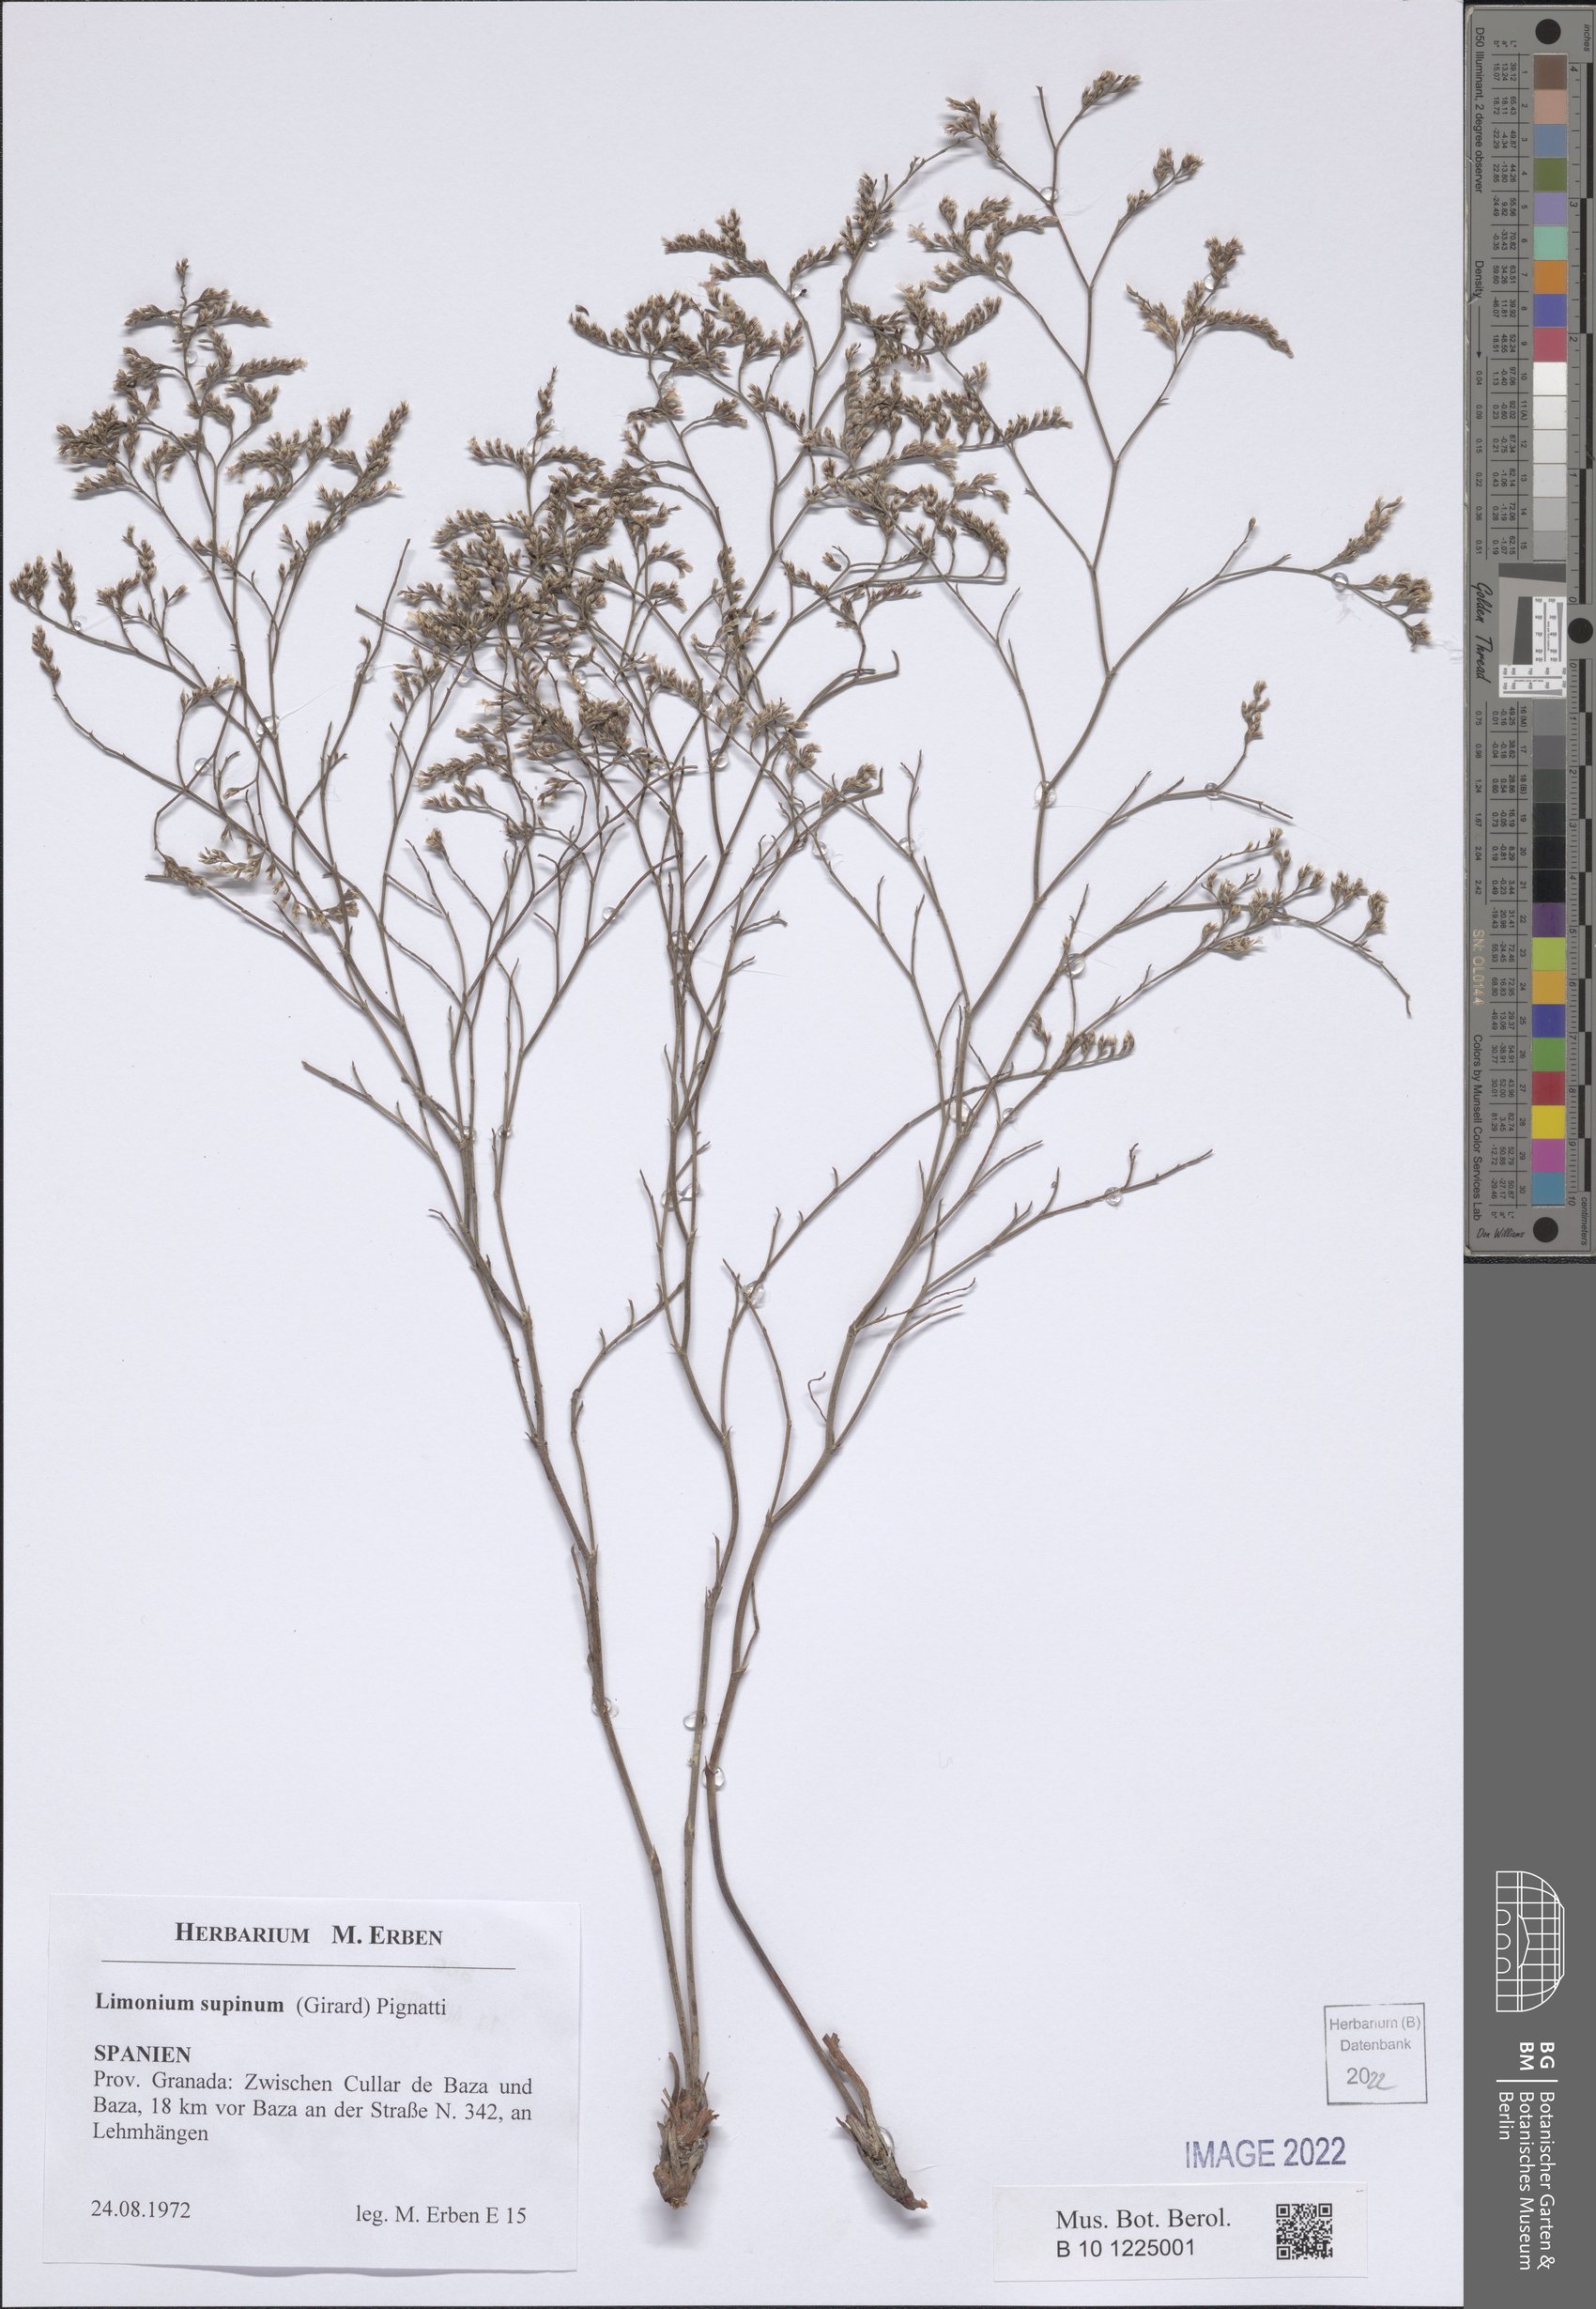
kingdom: Plantae
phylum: Tracheophyta
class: Magnoliopsida
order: Caryophyllales
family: Plumbaginaceae
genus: Limonium
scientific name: Limonium supinum
